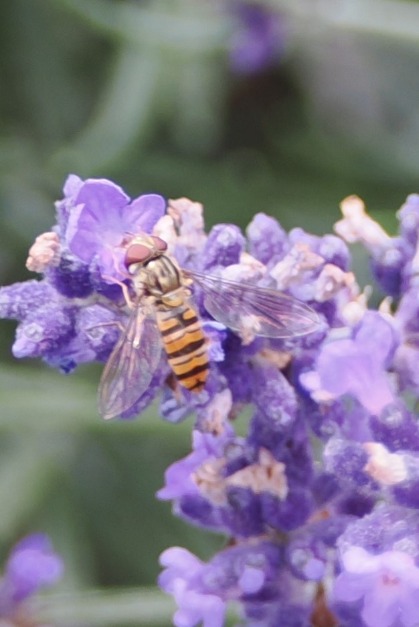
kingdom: Animalia
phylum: Arthropoda
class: Insecta
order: Diptera
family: Syrphidae
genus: Episyrphus
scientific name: Episyrphus balteatus
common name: Dobbeltbåndet svirreflue
